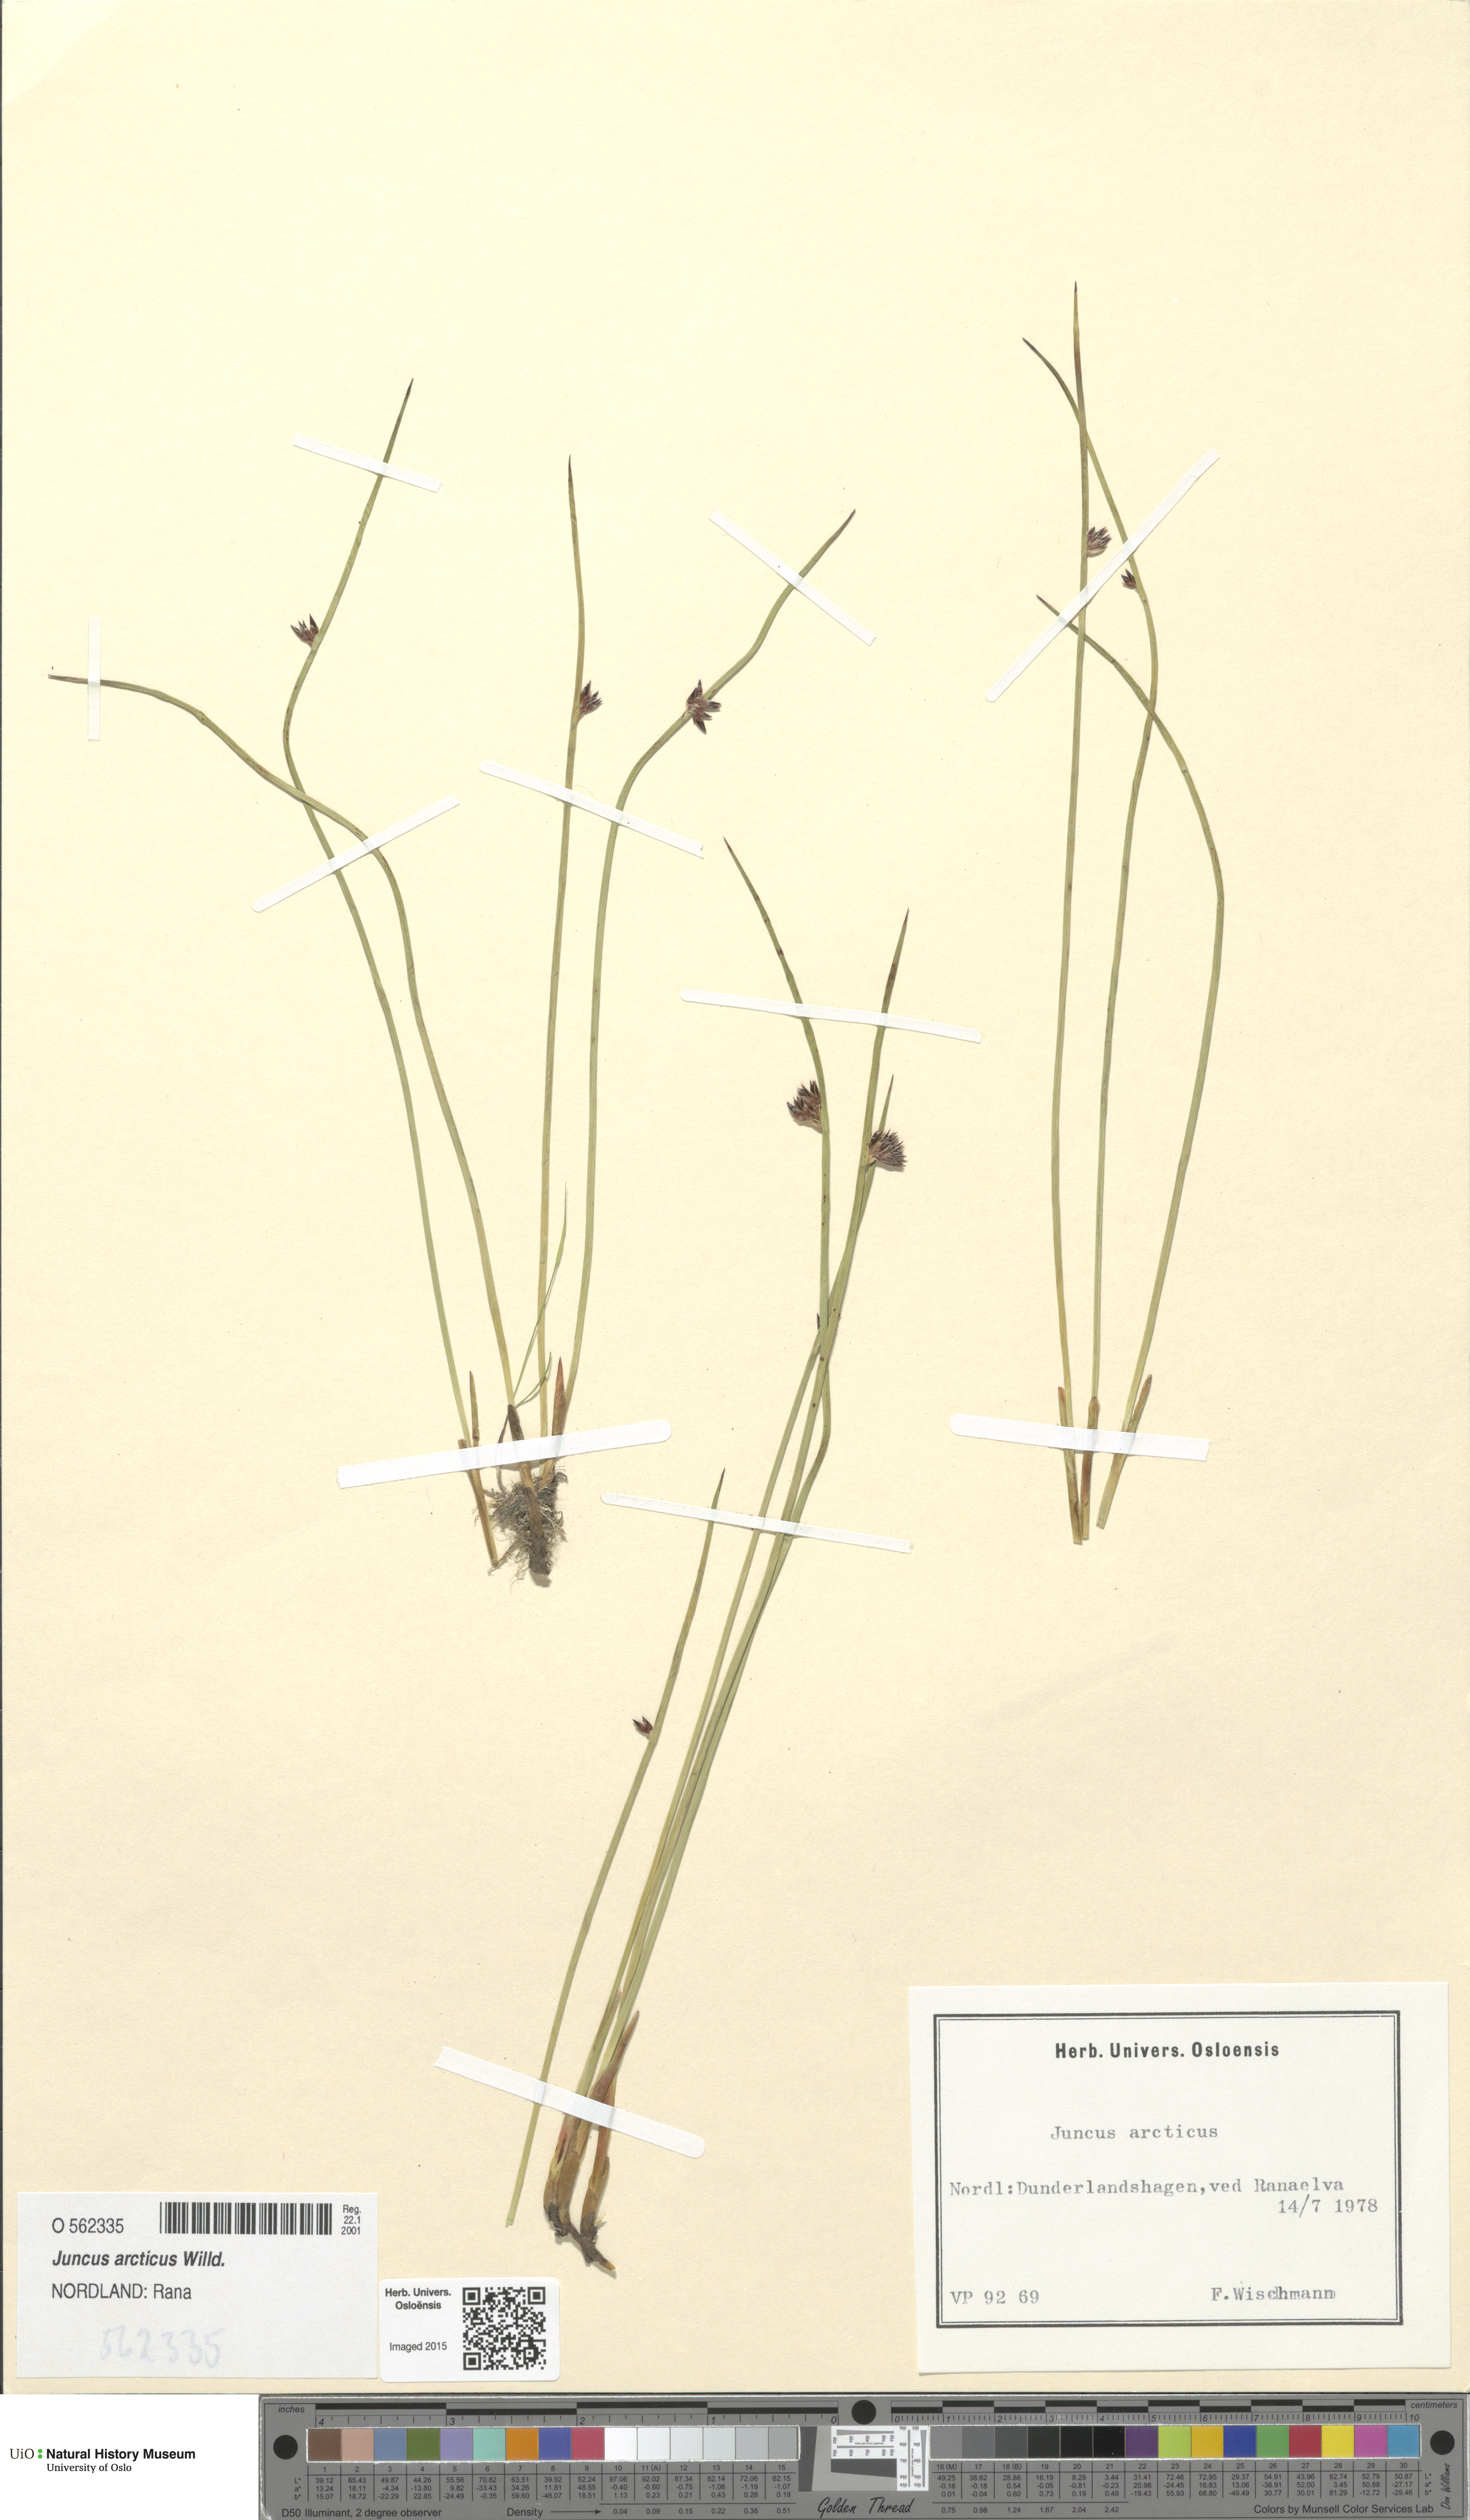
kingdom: Plantae
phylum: Tracheophyta
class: Liliopsida
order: Poales
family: Juncaceae
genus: Juncus
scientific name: Juncus arcticus
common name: Arctic rush
